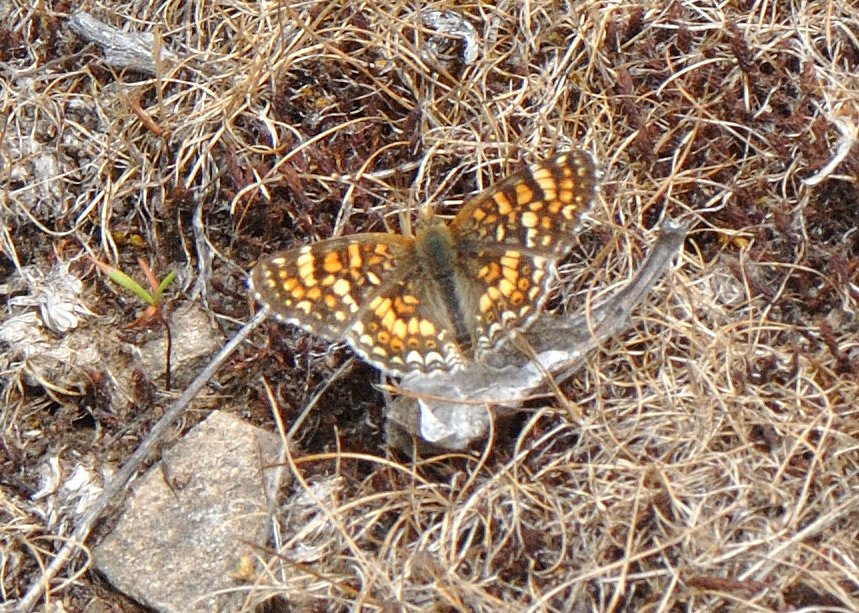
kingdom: Animalia
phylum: Arthropoda
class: Insecta
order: Lepidoptera
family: Nymphalidae
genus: Phyciodes
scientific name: Phyciodes orseis
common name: California Crescent
